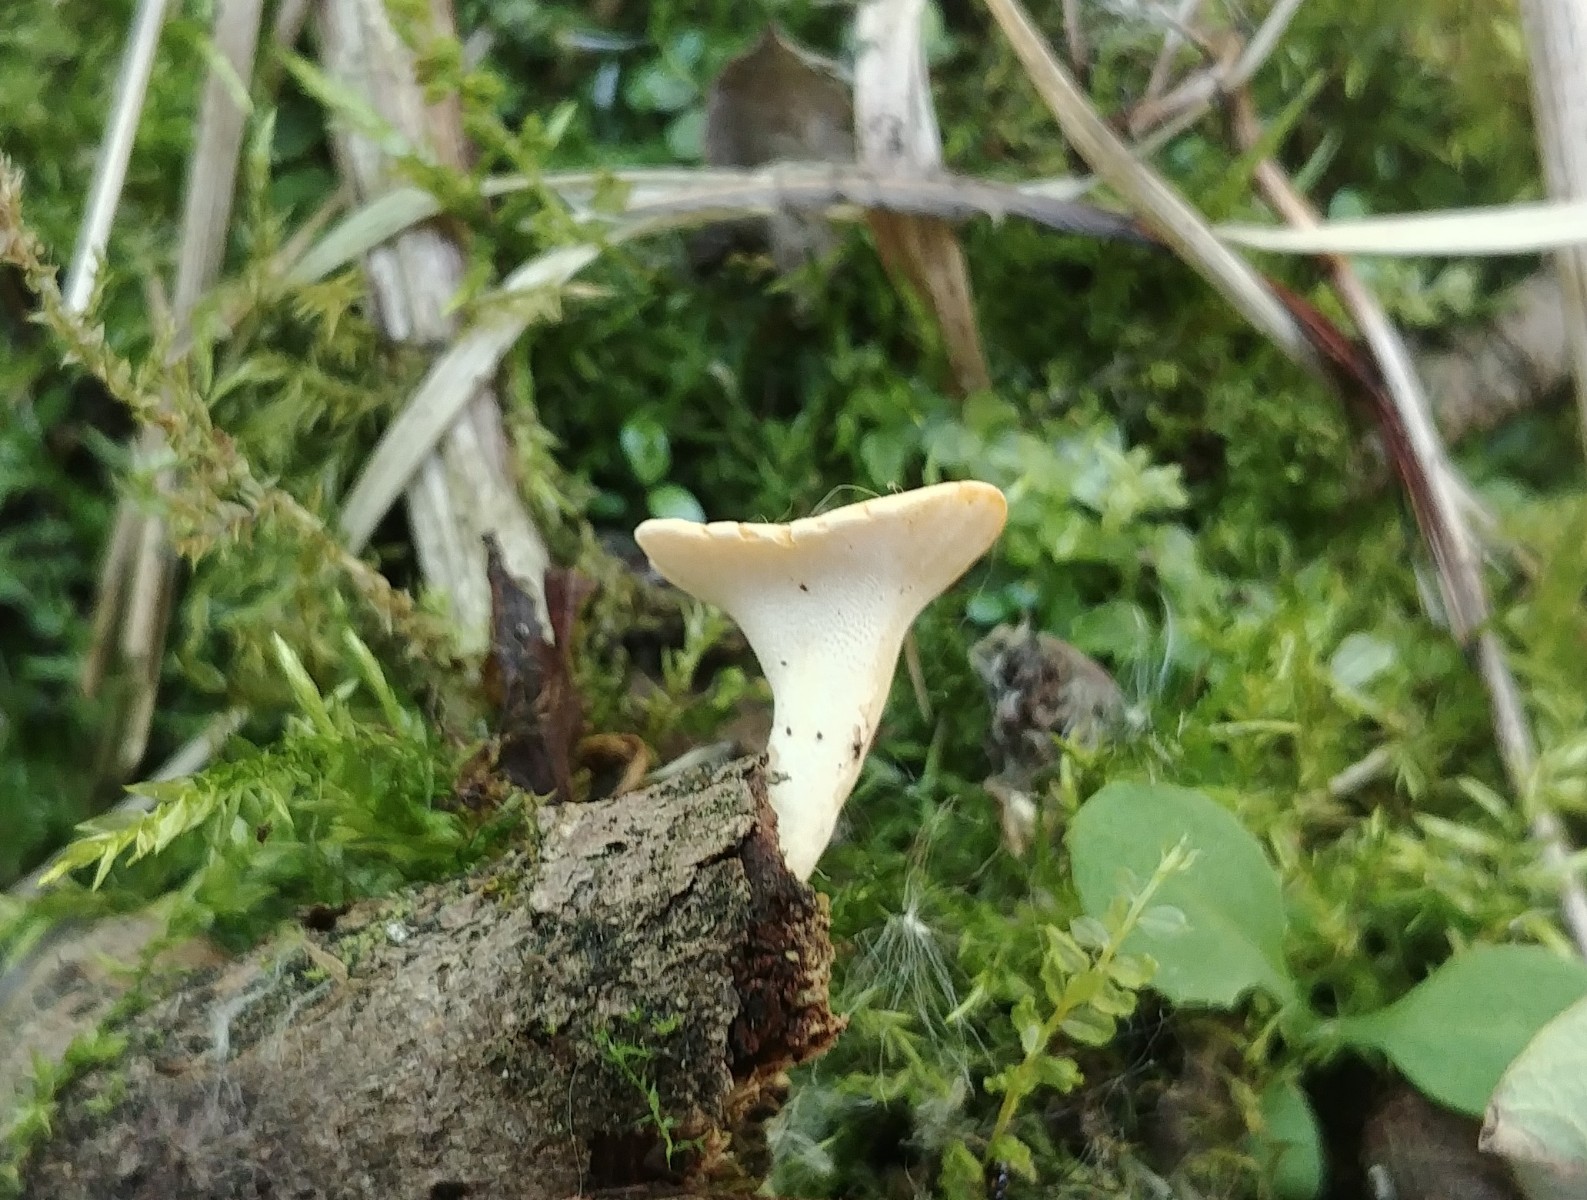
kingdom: Fungi
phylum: Basidiomycota
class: Agaricomycetes
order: Polyporales
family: Polyporaceae
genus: Cerioporus
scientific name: Cerioporus varius
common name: foranderlig stilkporesvamp
